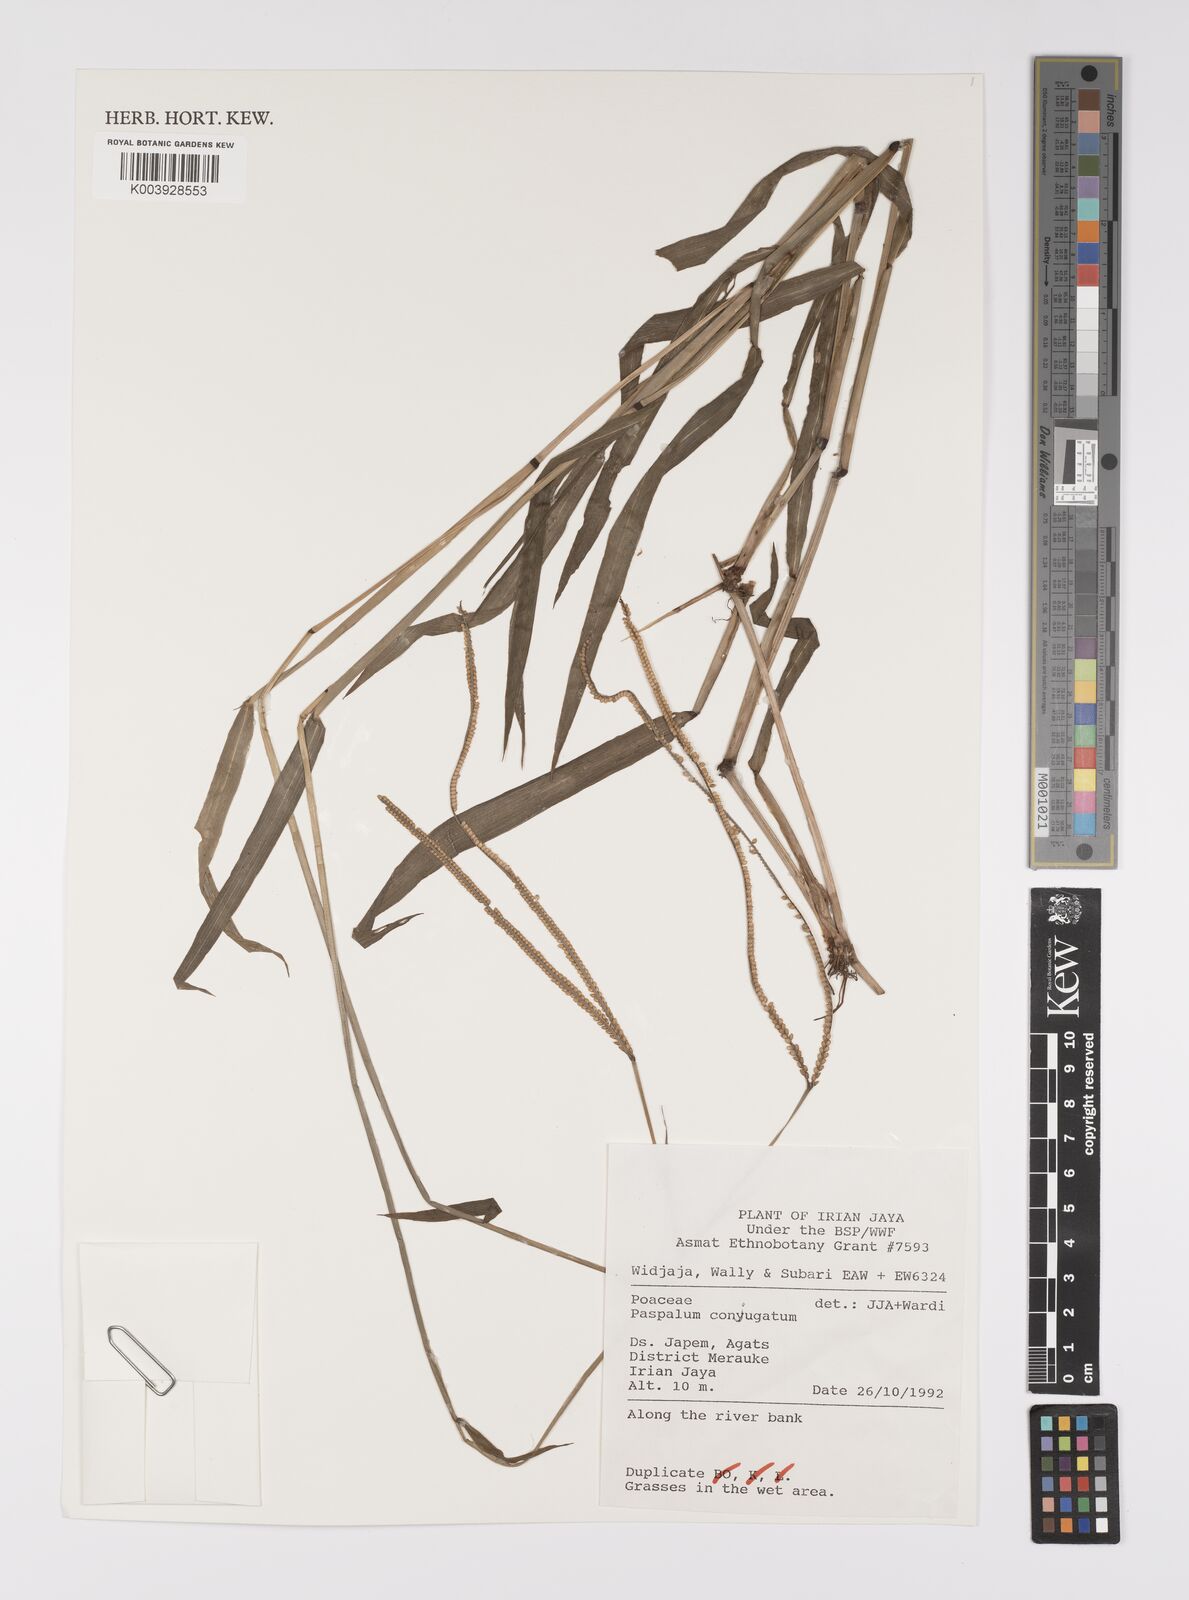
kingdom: Plantae
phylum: Tracheophyta
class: Liliopsida
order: Poales
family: Poaceae
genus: Paspalum
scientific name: Paspalum conjugatum
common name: Hilograss
